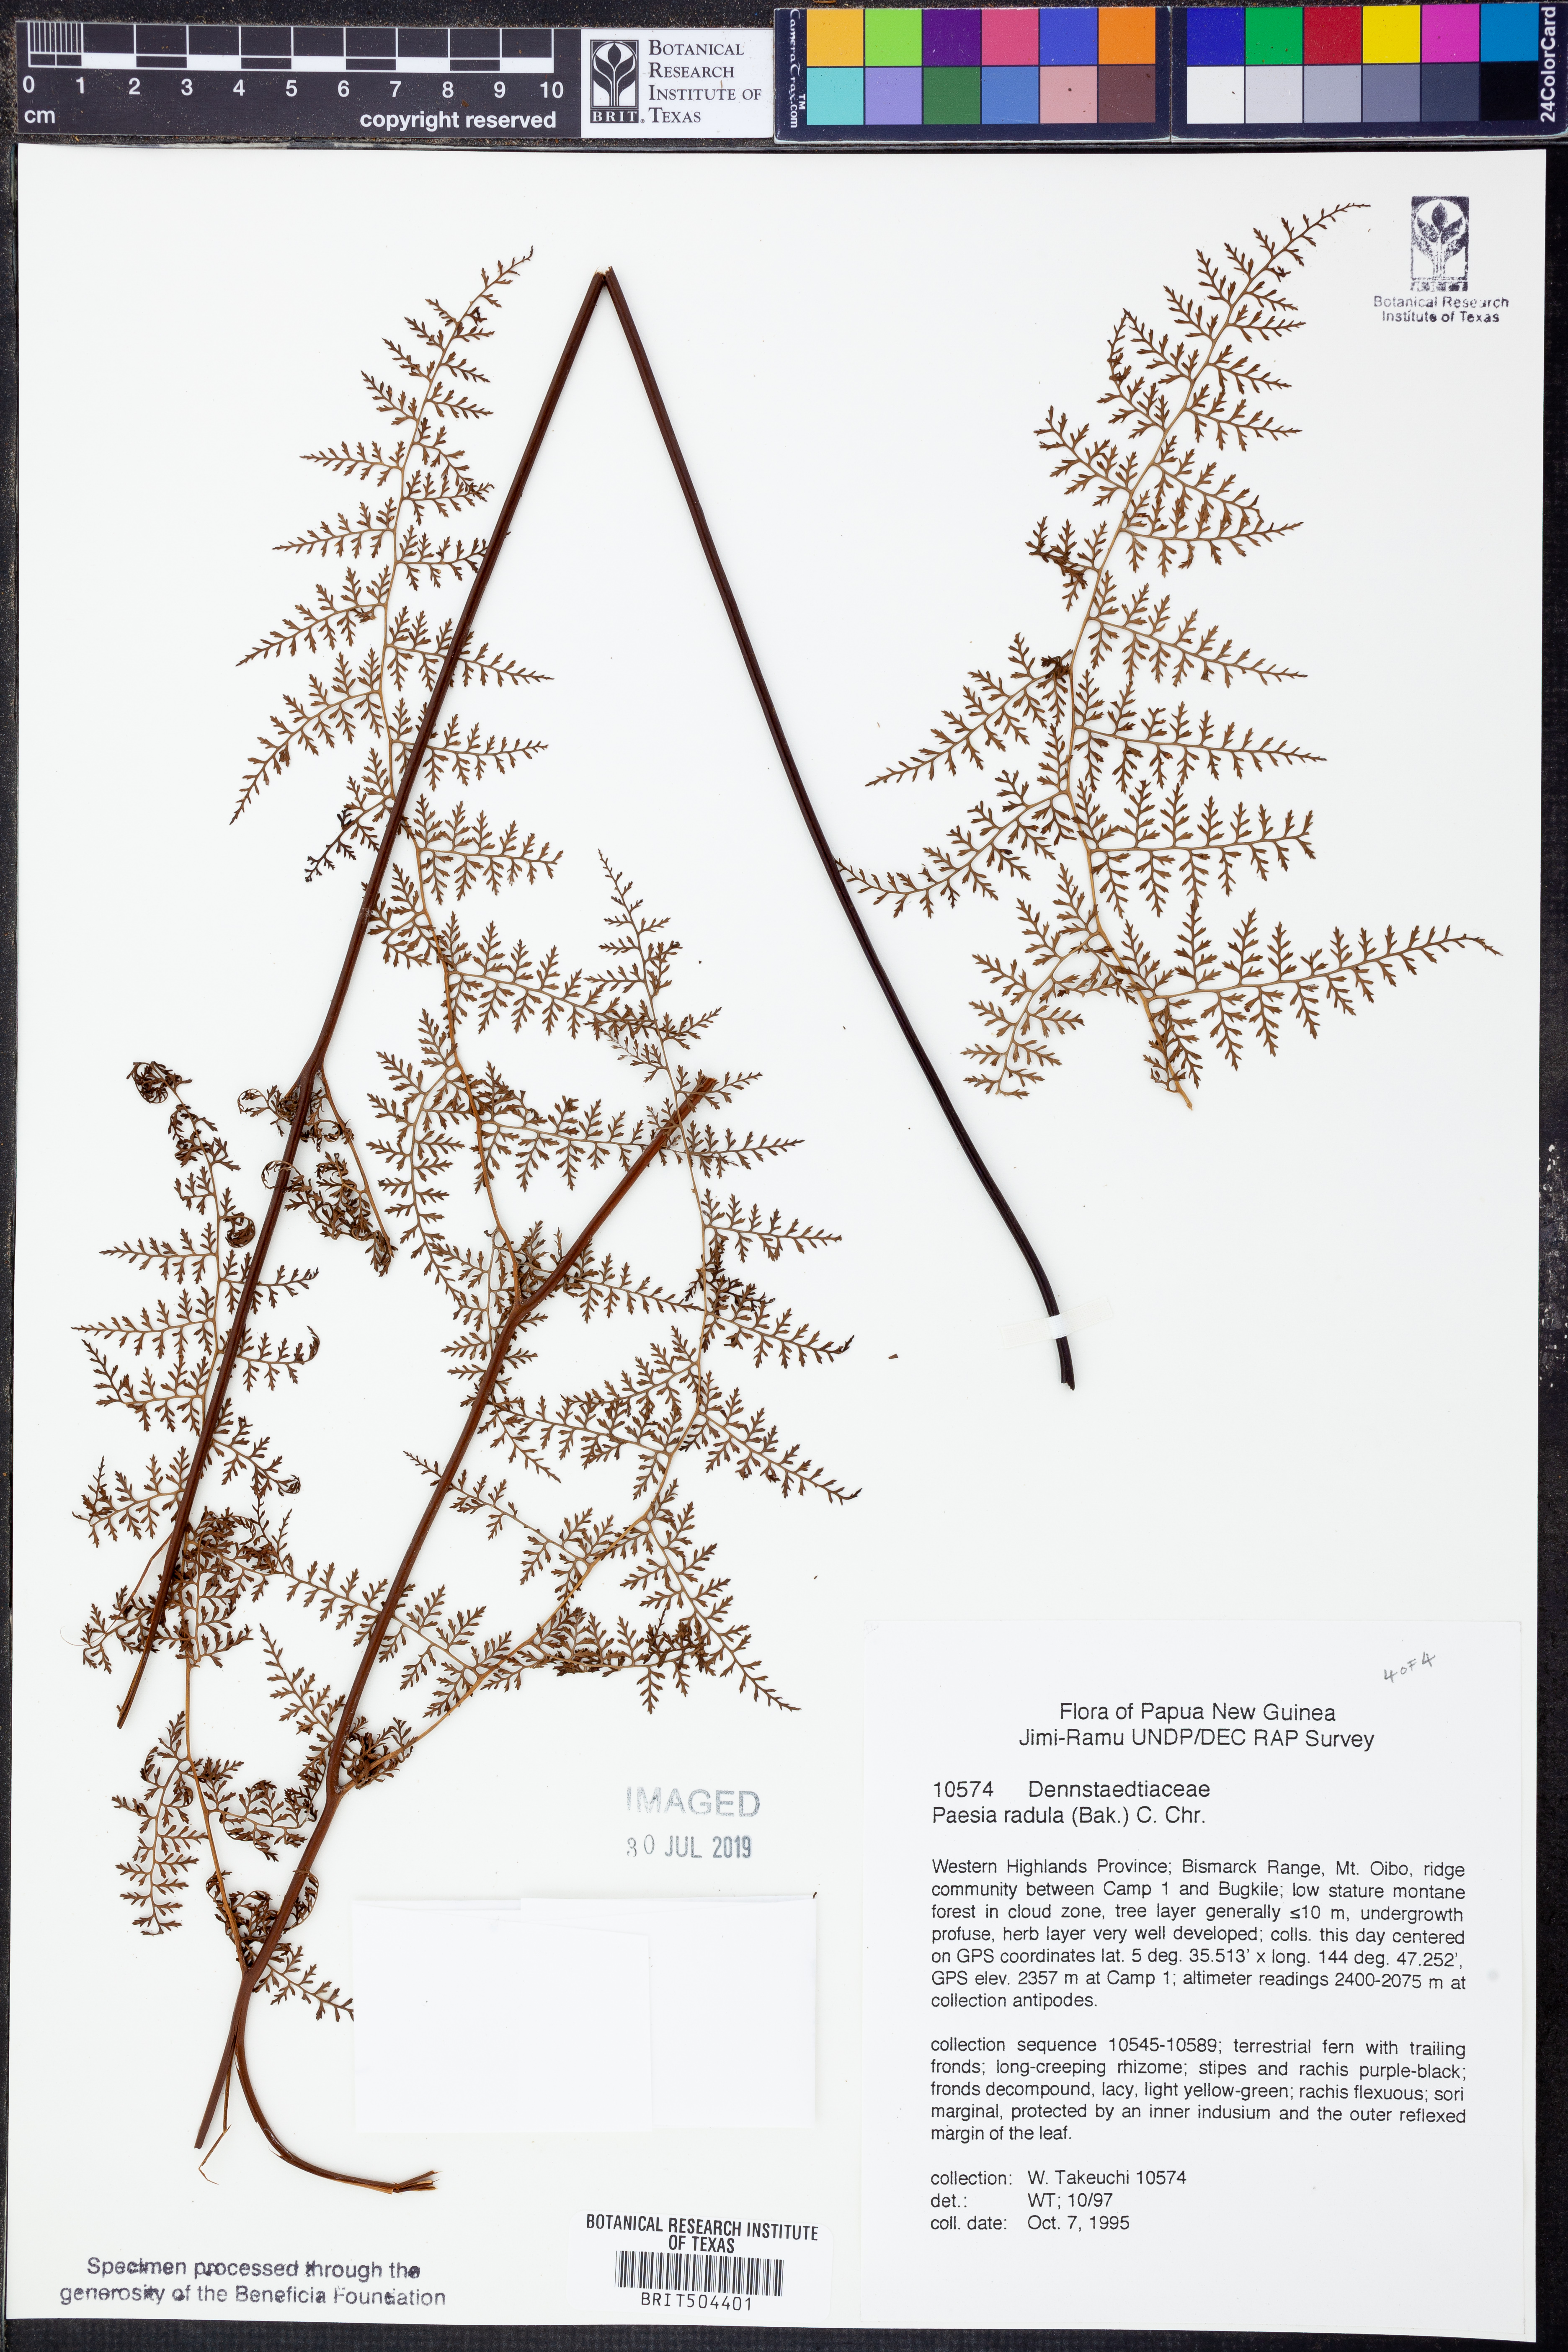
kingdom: Plantae
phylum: Tracheophyta
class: Polypodiopsida
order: Polypodiales
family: Dennstaedtiaceae
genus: Paesia
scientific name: Paesia radula
